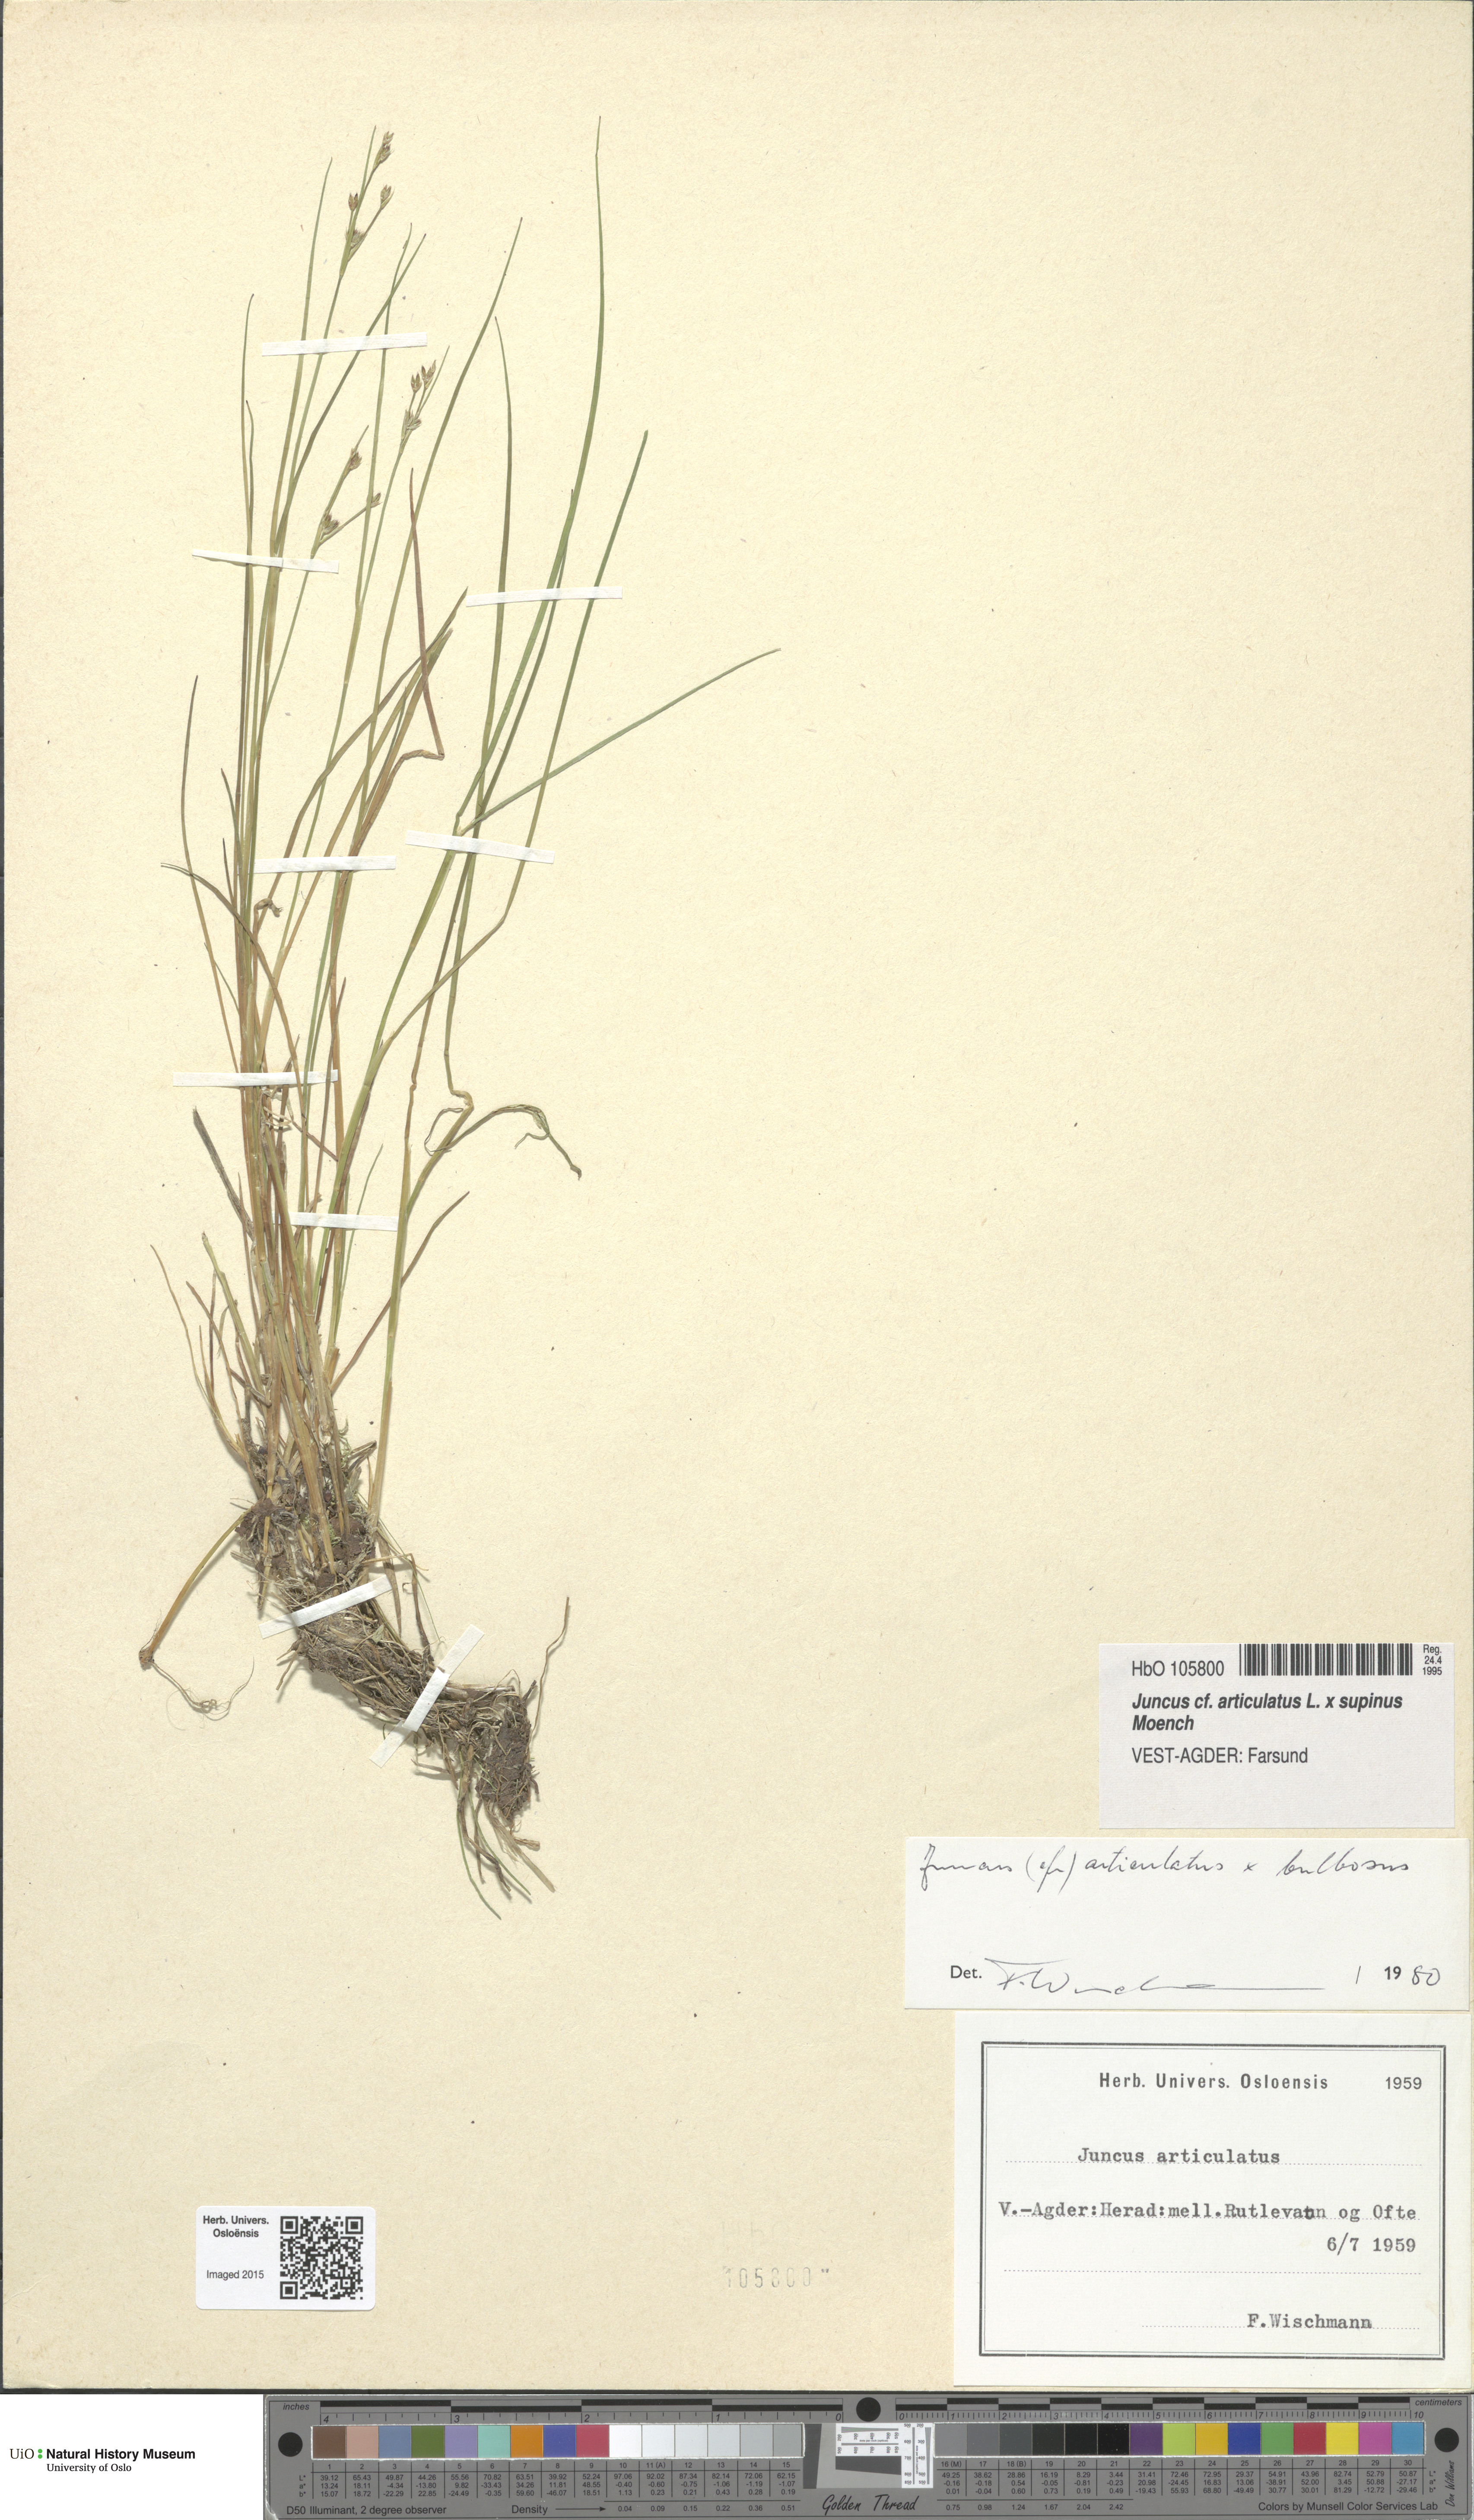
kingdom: Plantae
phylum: Tracheophyta
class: Liliopsida
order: Poales
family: Juncaceae
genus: Juncus
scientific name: Juncus
